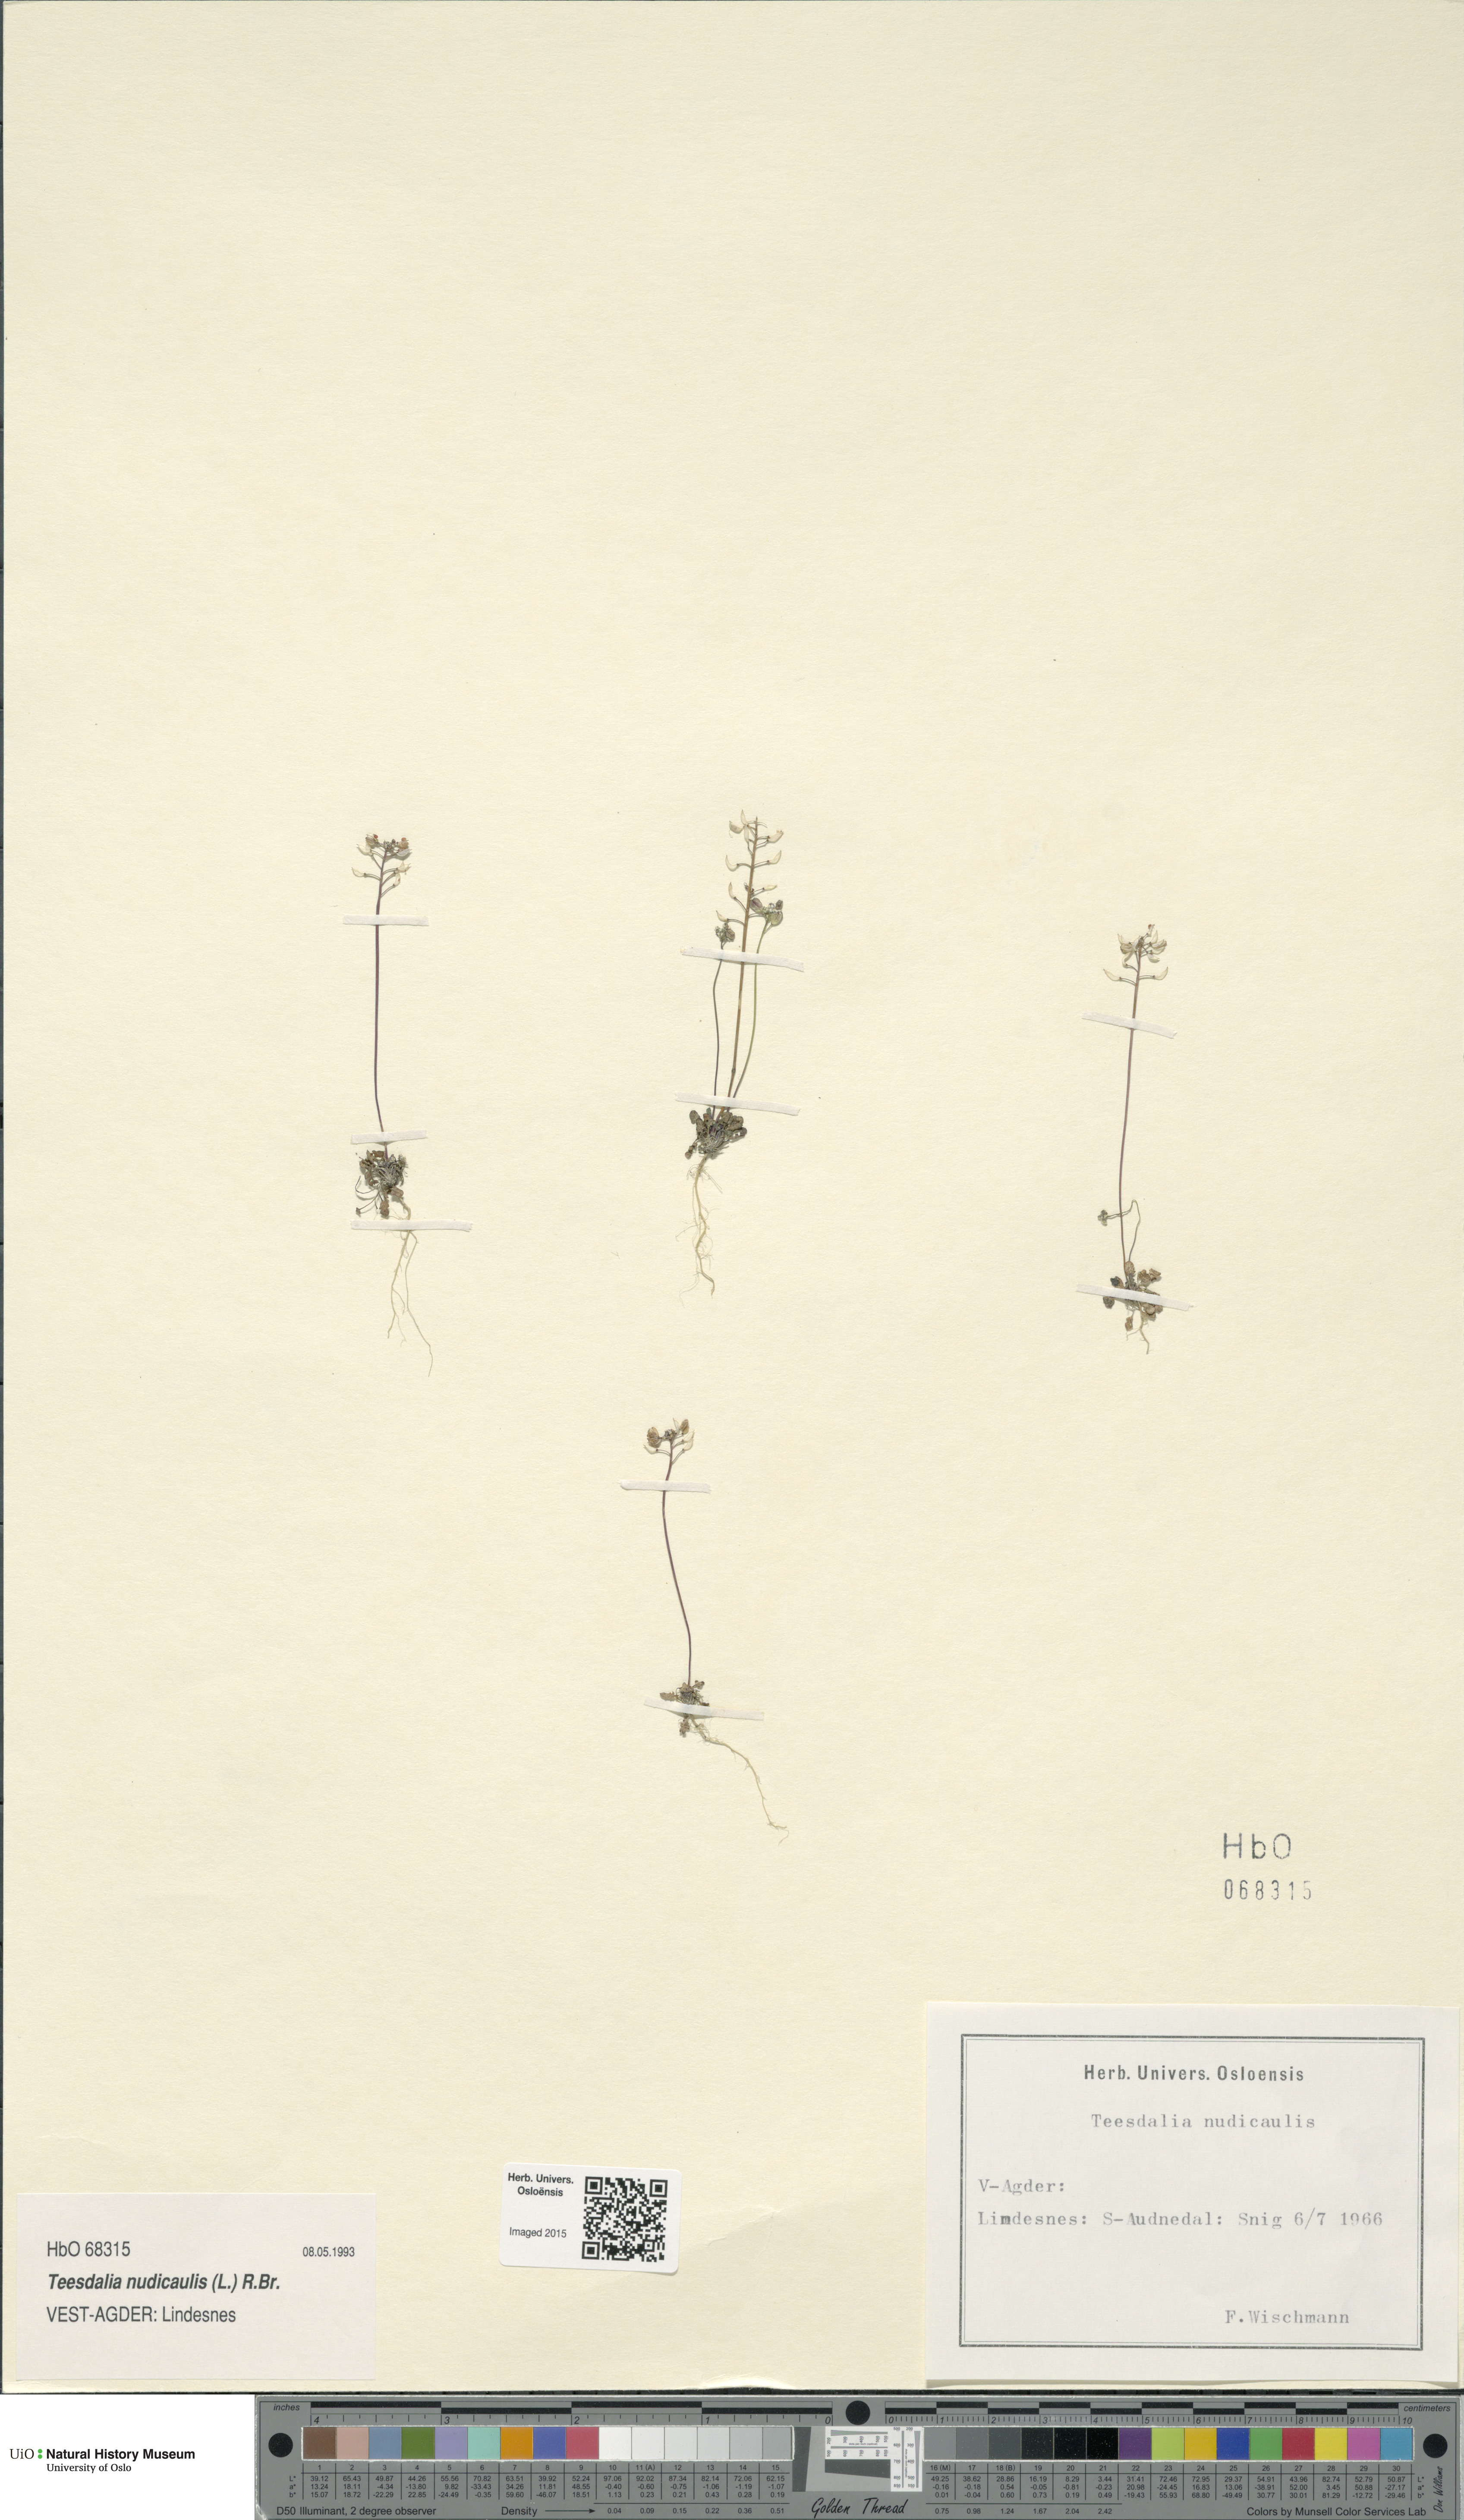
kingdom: Plantae
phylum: Tracheophyta
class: Magnoliopsida
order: Brassicales
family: Brassicaceae
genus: Teesdalia
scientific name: Teesdalia nudicaulis
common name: Shepherd's cress
